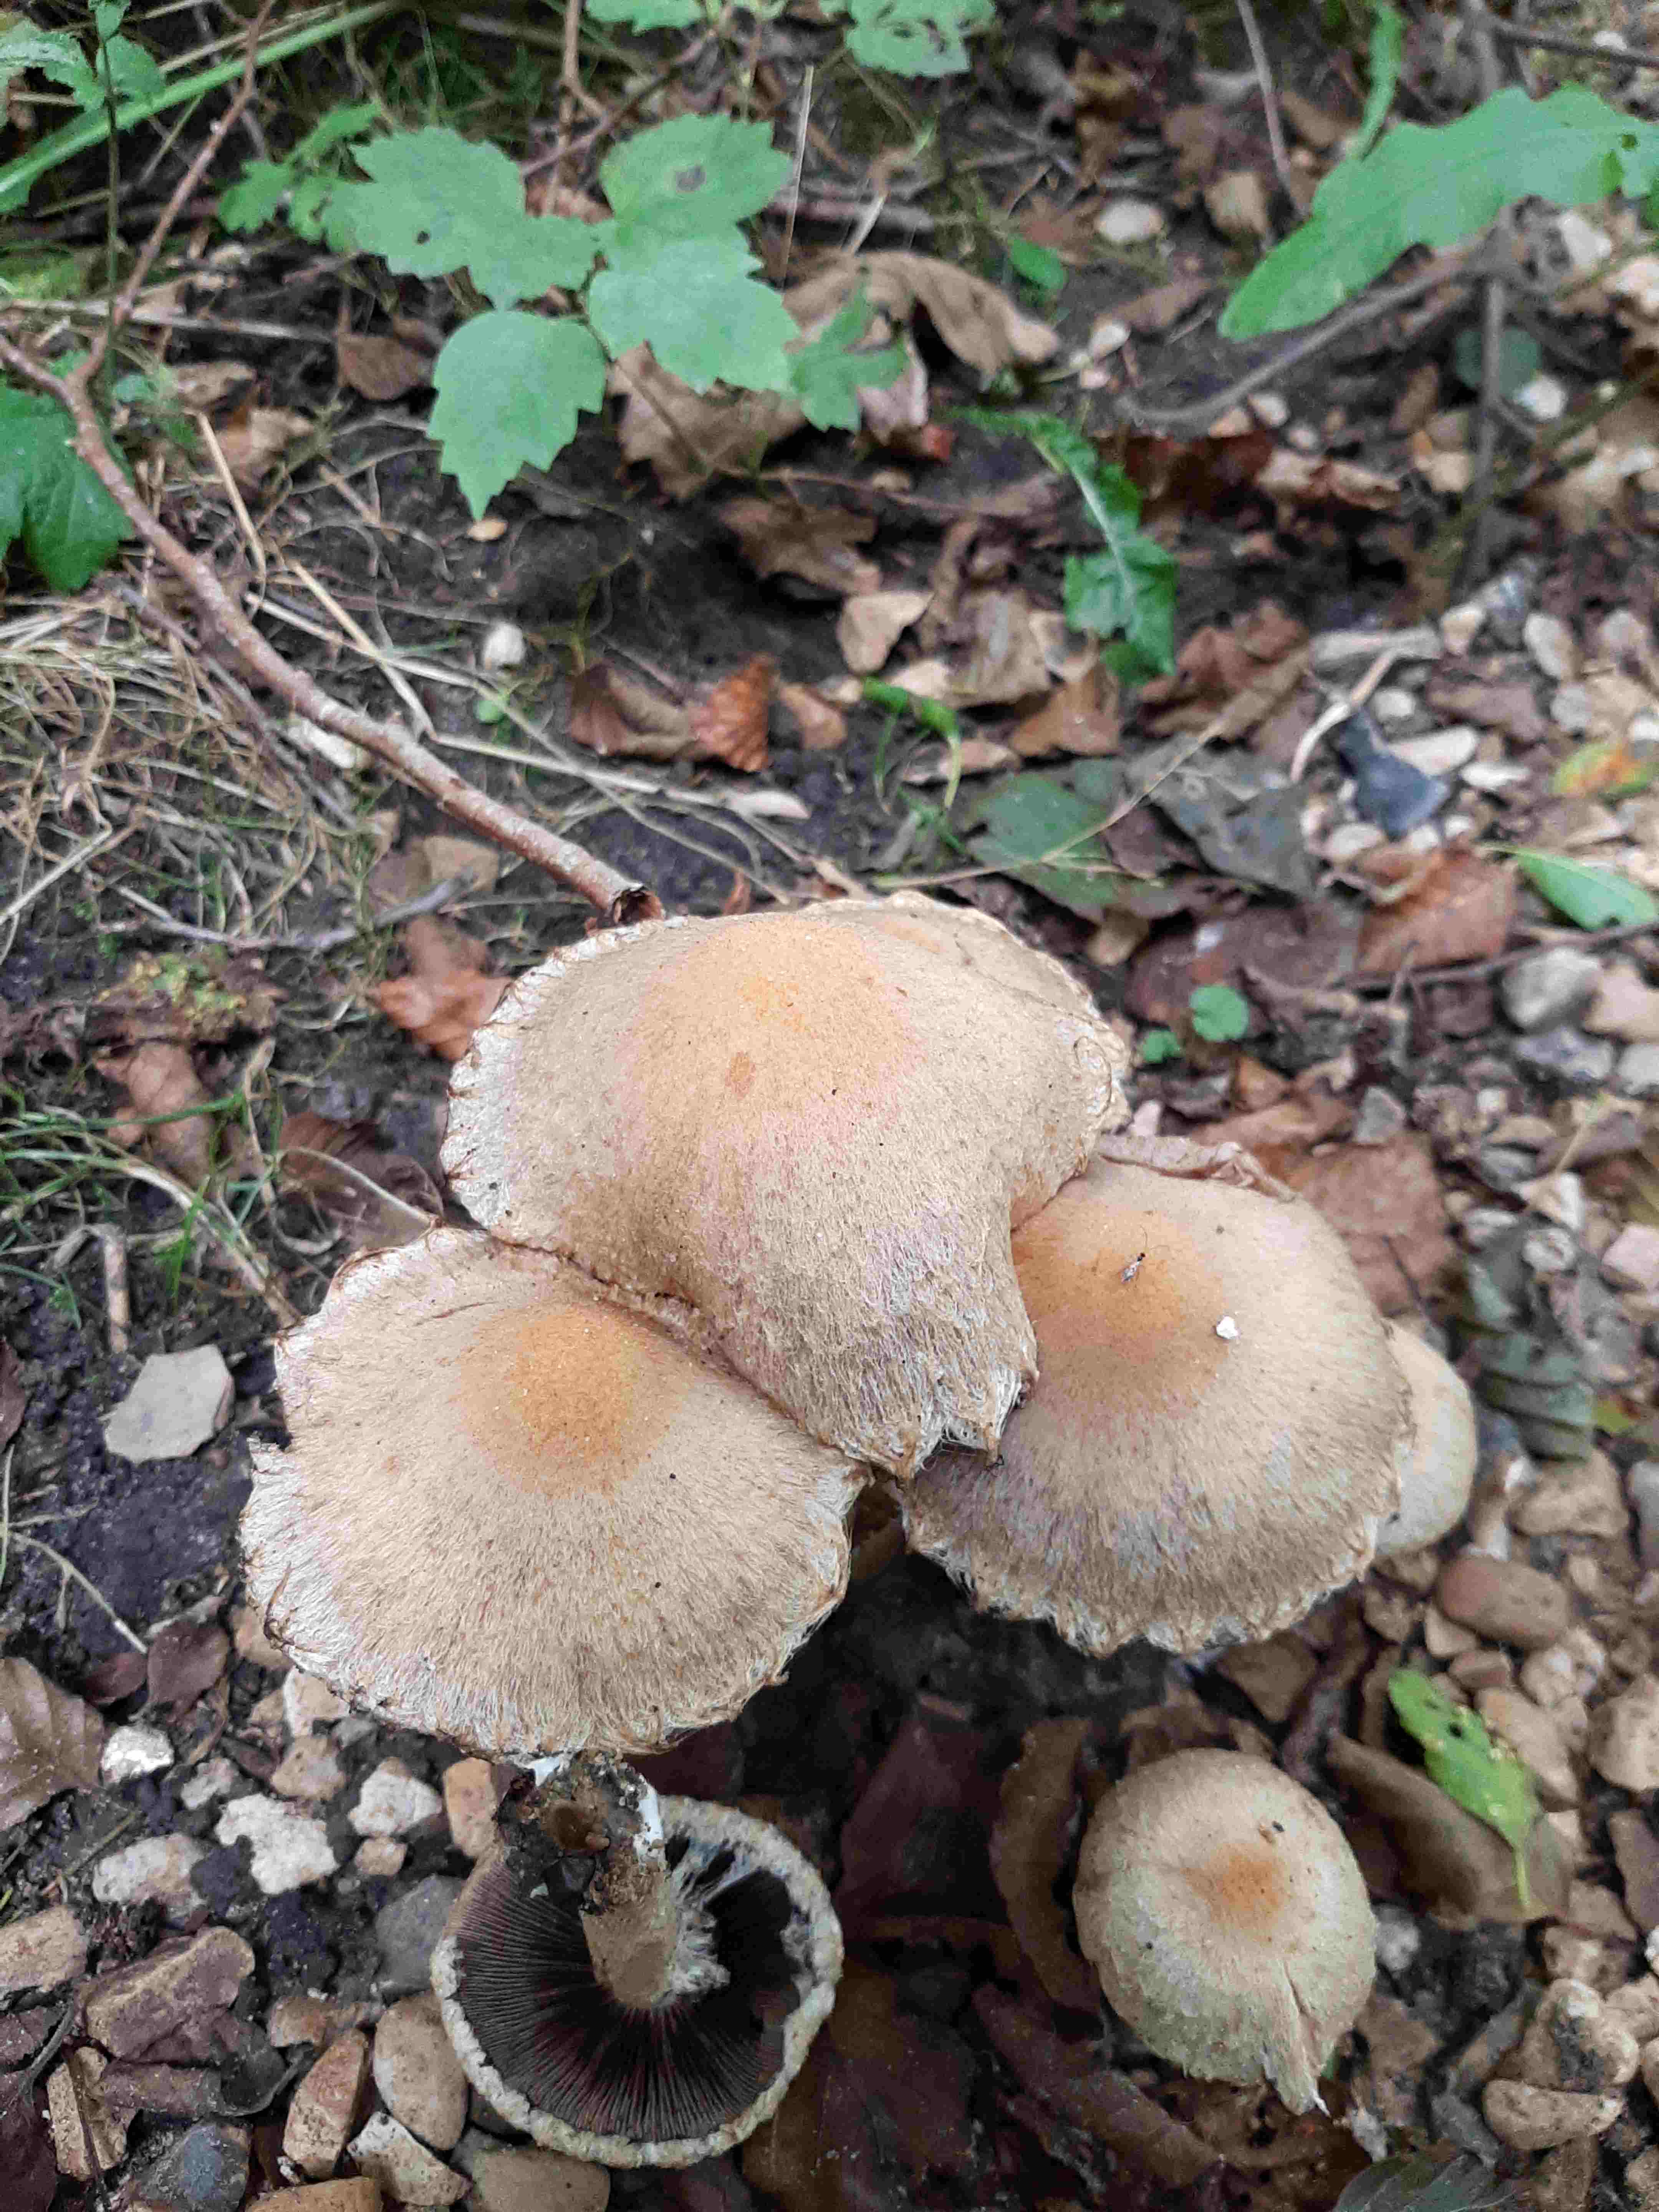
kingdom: Fungi
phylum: Basidiomycota
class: Agaricomycetes
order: Agaricales
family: Psathyrellaceae
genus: Lacrymaria
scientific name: Lacrymaria lacrymabunda
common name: grædende mørkhat
